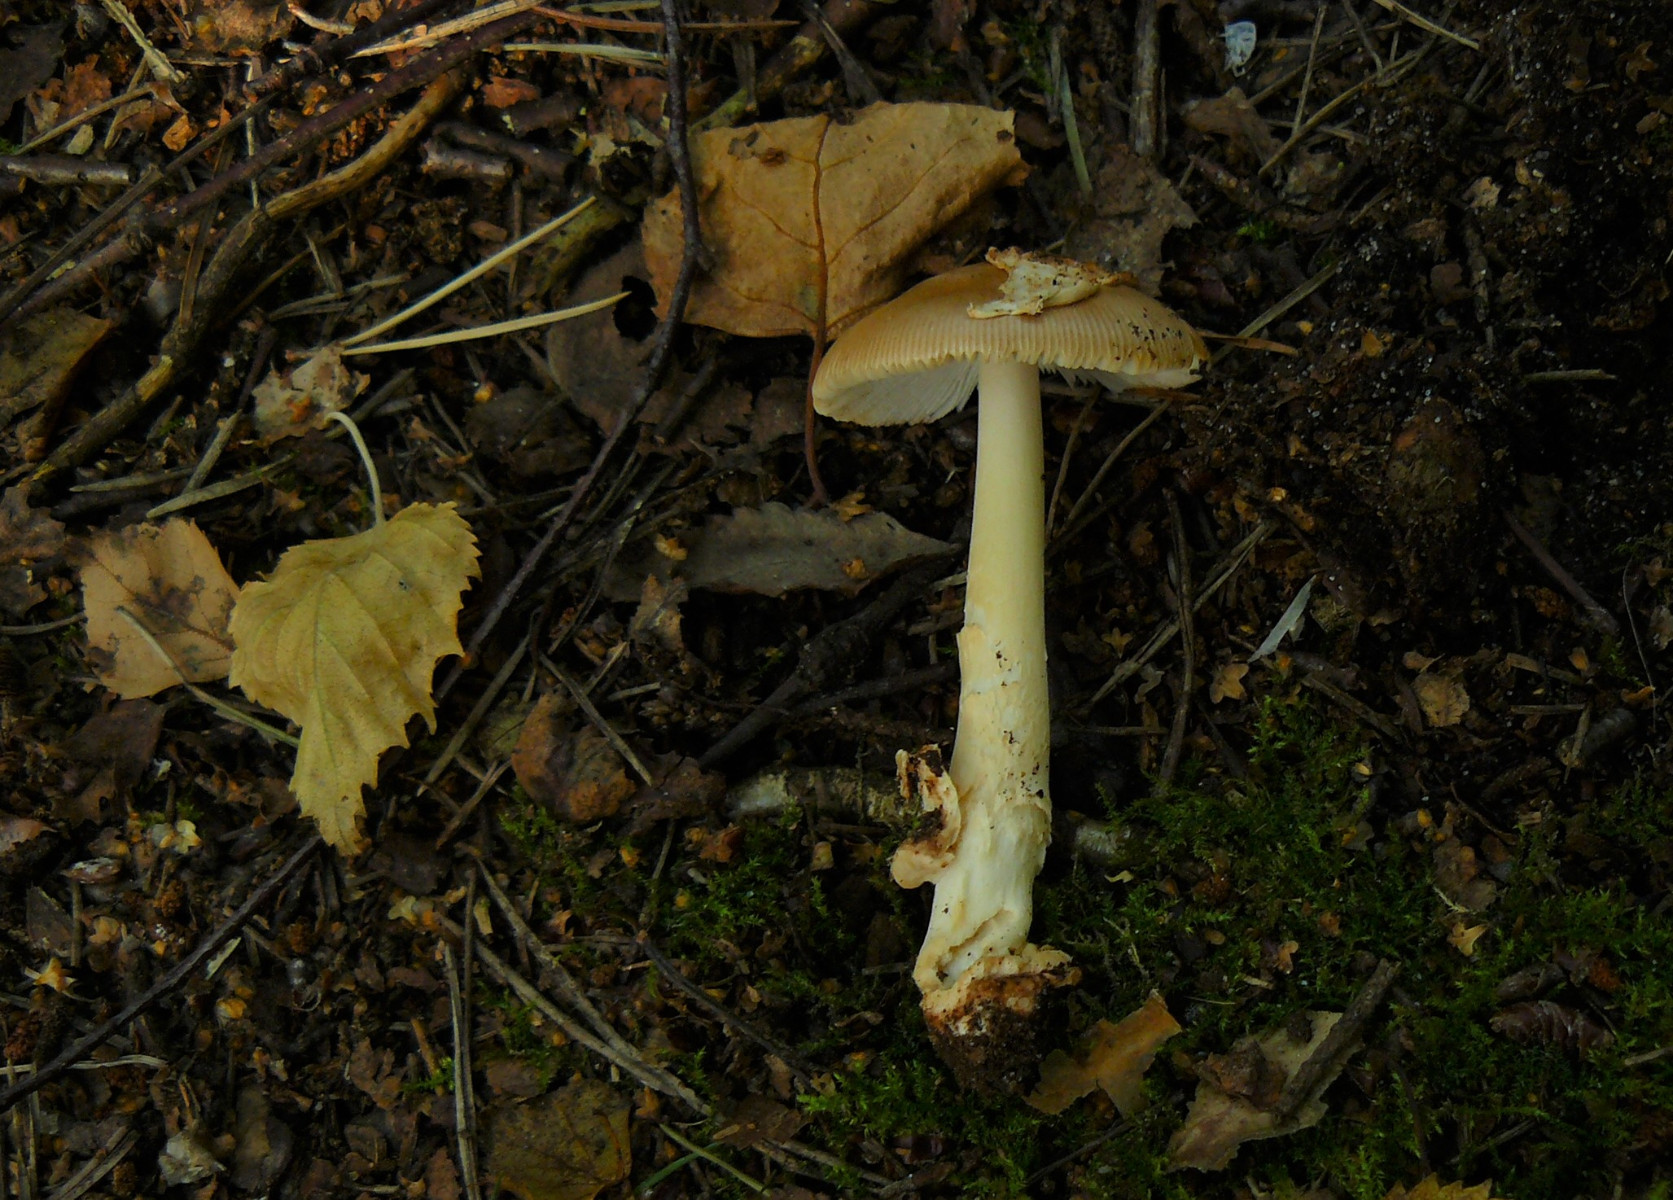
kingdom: Fungi
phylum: Basidiomycota
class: Agaricomycetes
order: Agaricales
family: Amanitaceae
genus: Amanita
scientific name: Amanita fulva
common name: brun kam-fluesvamp
